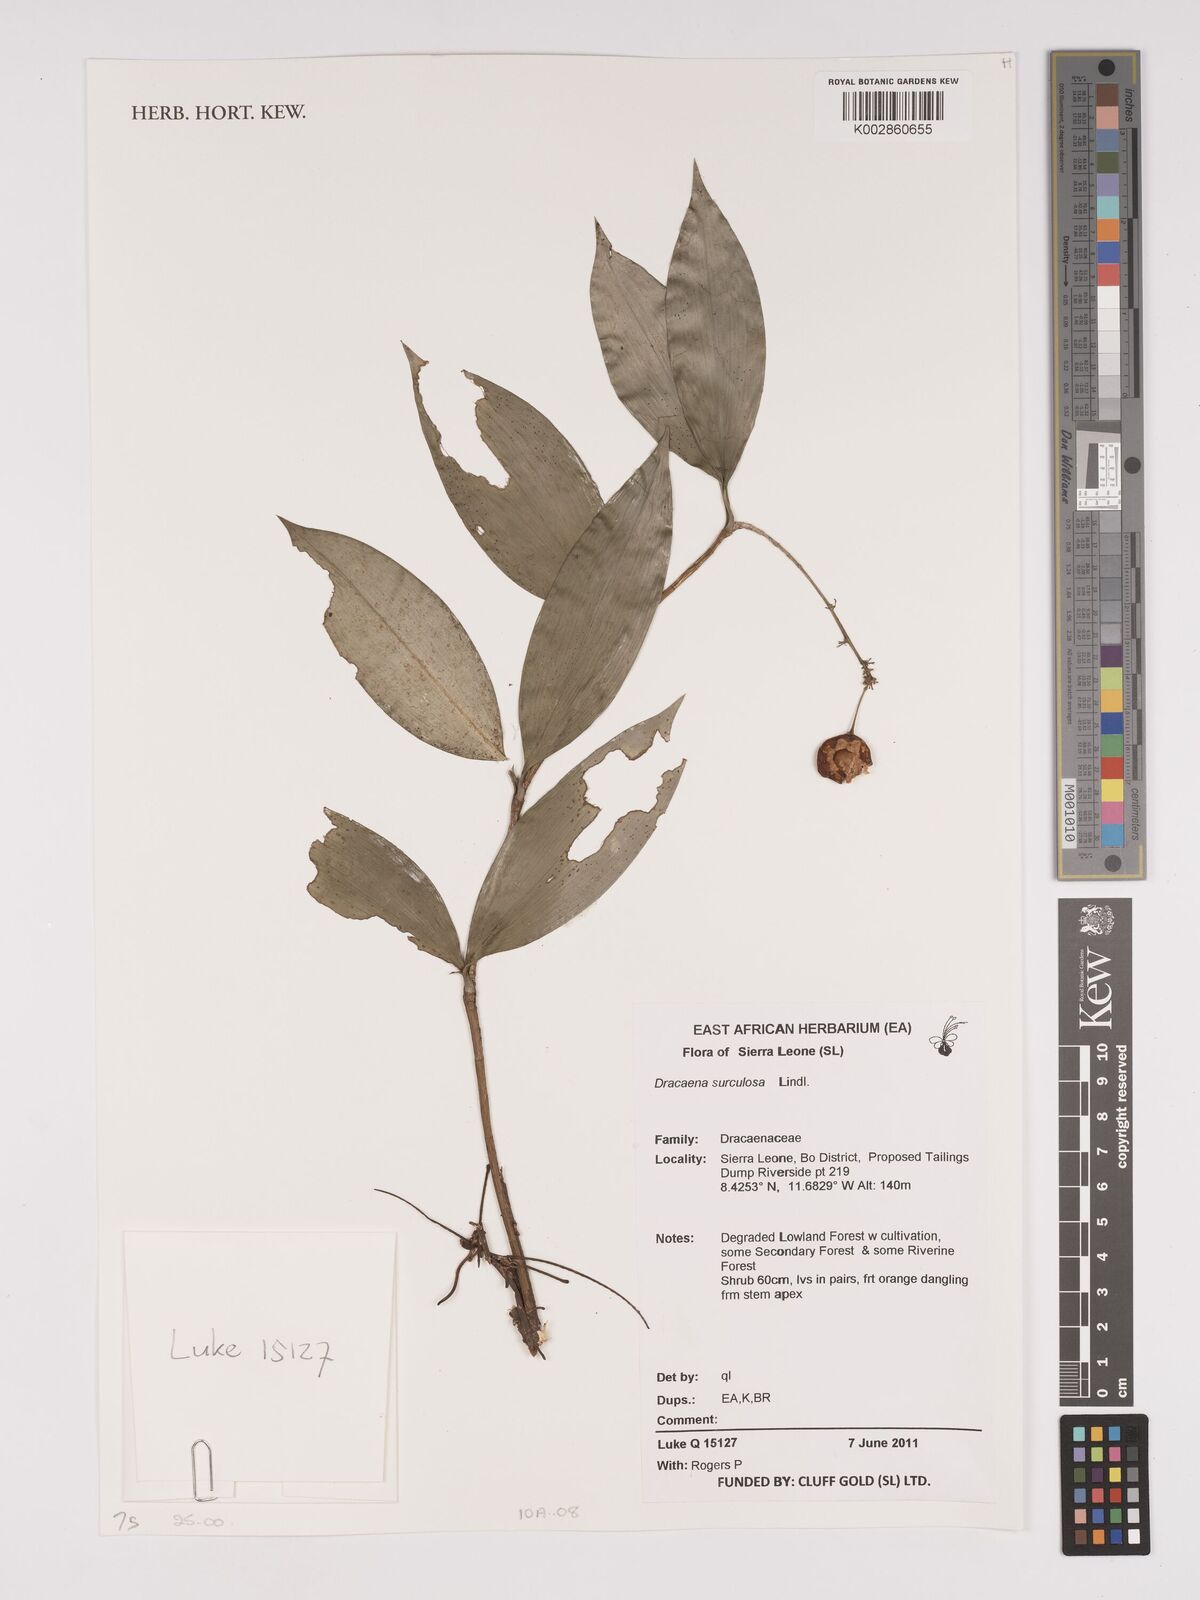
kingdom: Plantae
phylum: Tracheophyta
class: Liliopsida
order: Asparagales
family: Asparagaceae
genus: Dracaena
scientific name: Dracaena surculosa
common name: Spotted dracaena
